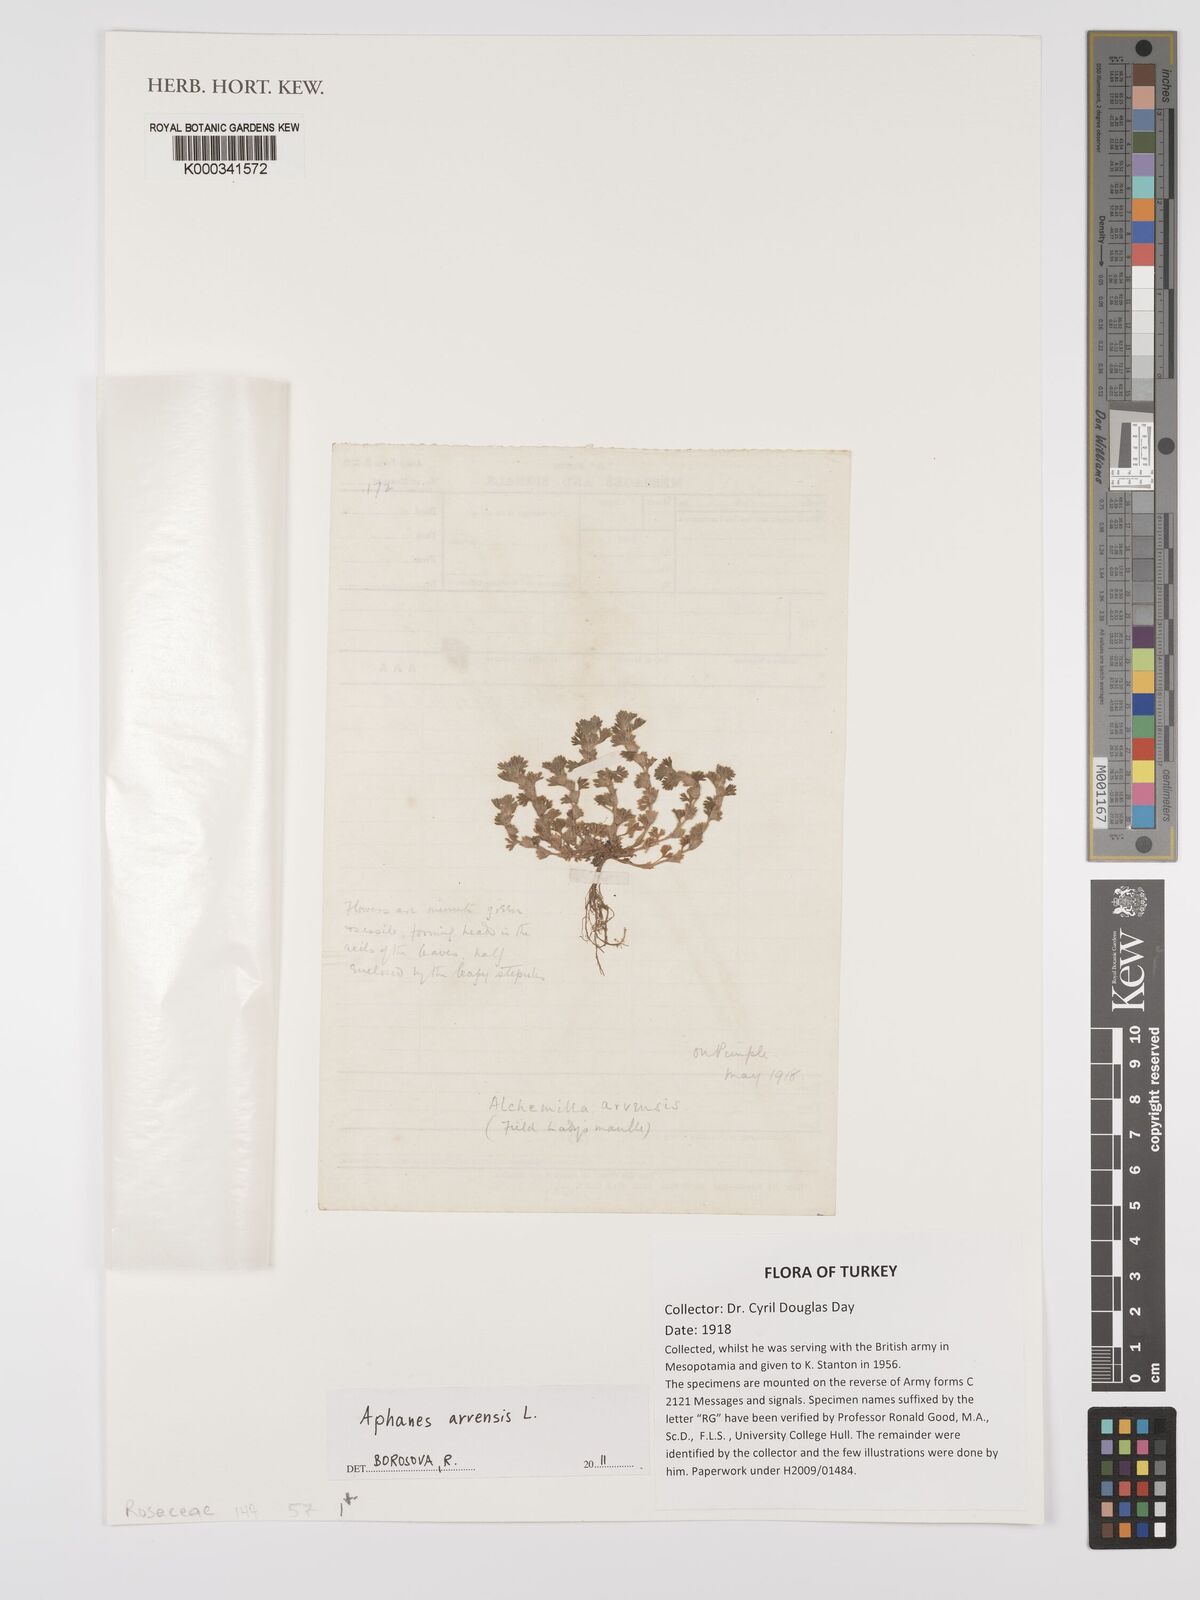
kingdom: Plantae
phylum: Tracheophyta
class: Magnoliopsida
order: Rosales
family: Rosaceae
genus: Aphanes
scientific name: Aphanes arvensis
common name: Parsley-piert
